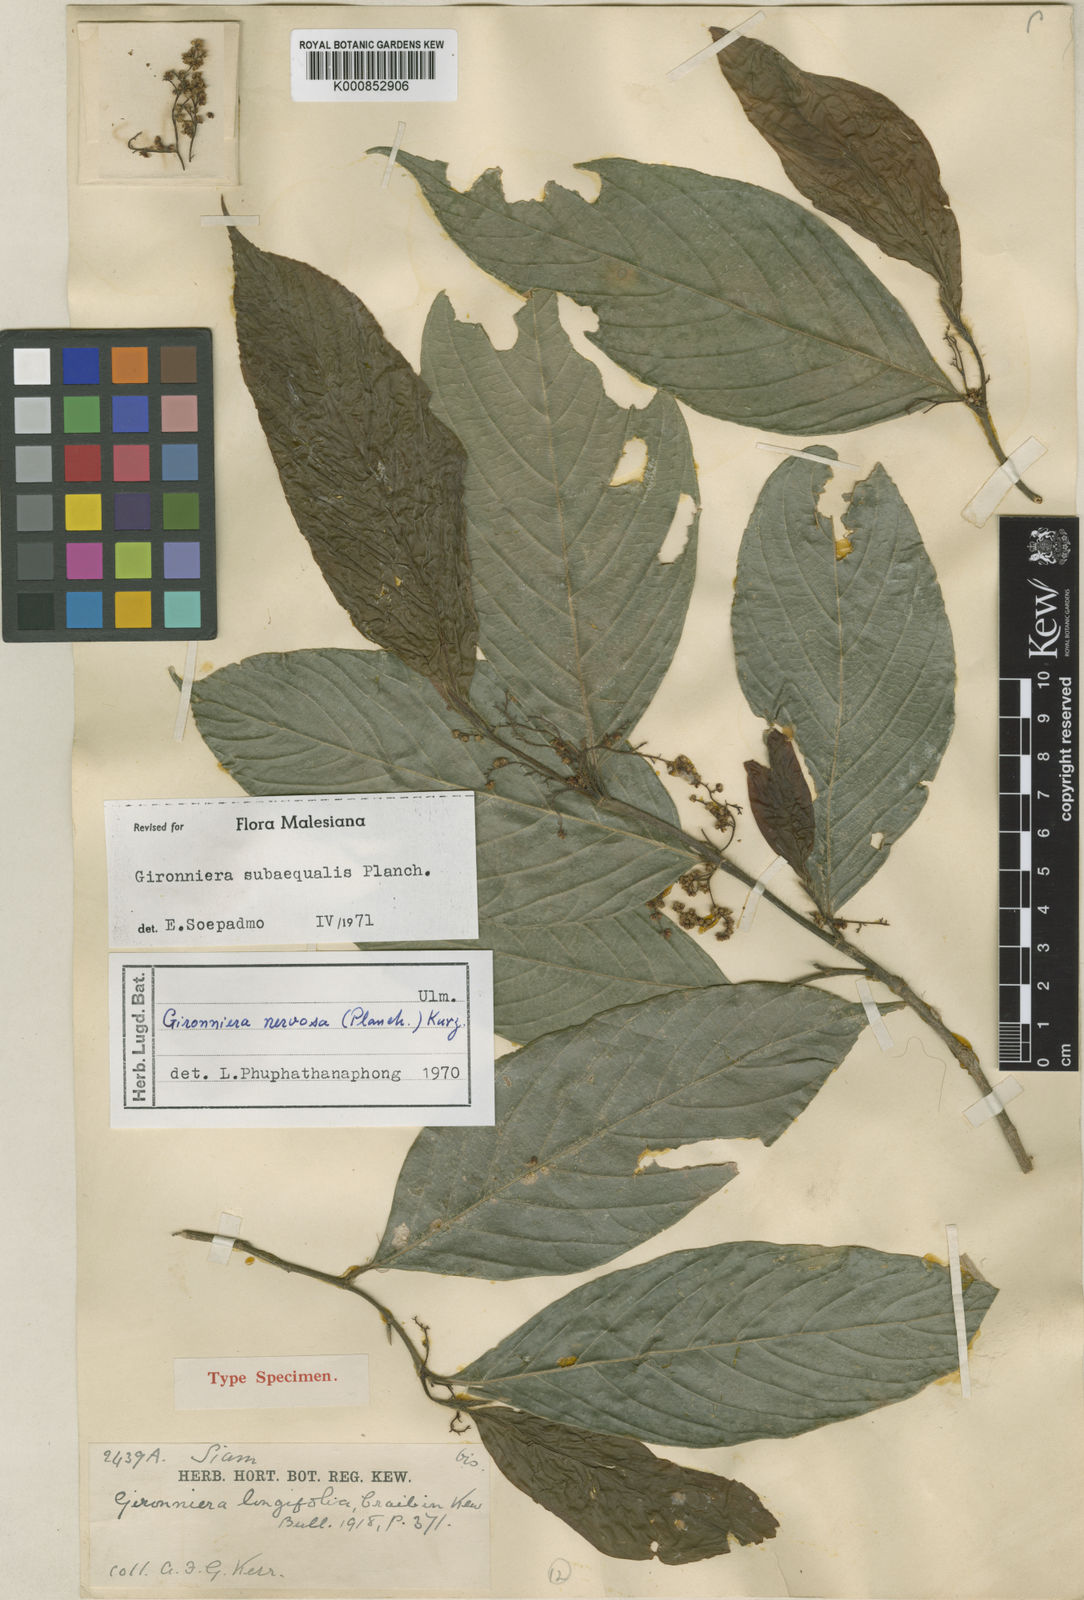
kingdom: Plantae
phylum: Tracheophyta
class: Magnoliopsida
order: Rosales
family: Cannabaceae
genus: Gironniera
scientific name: Gironniera subaequalis
